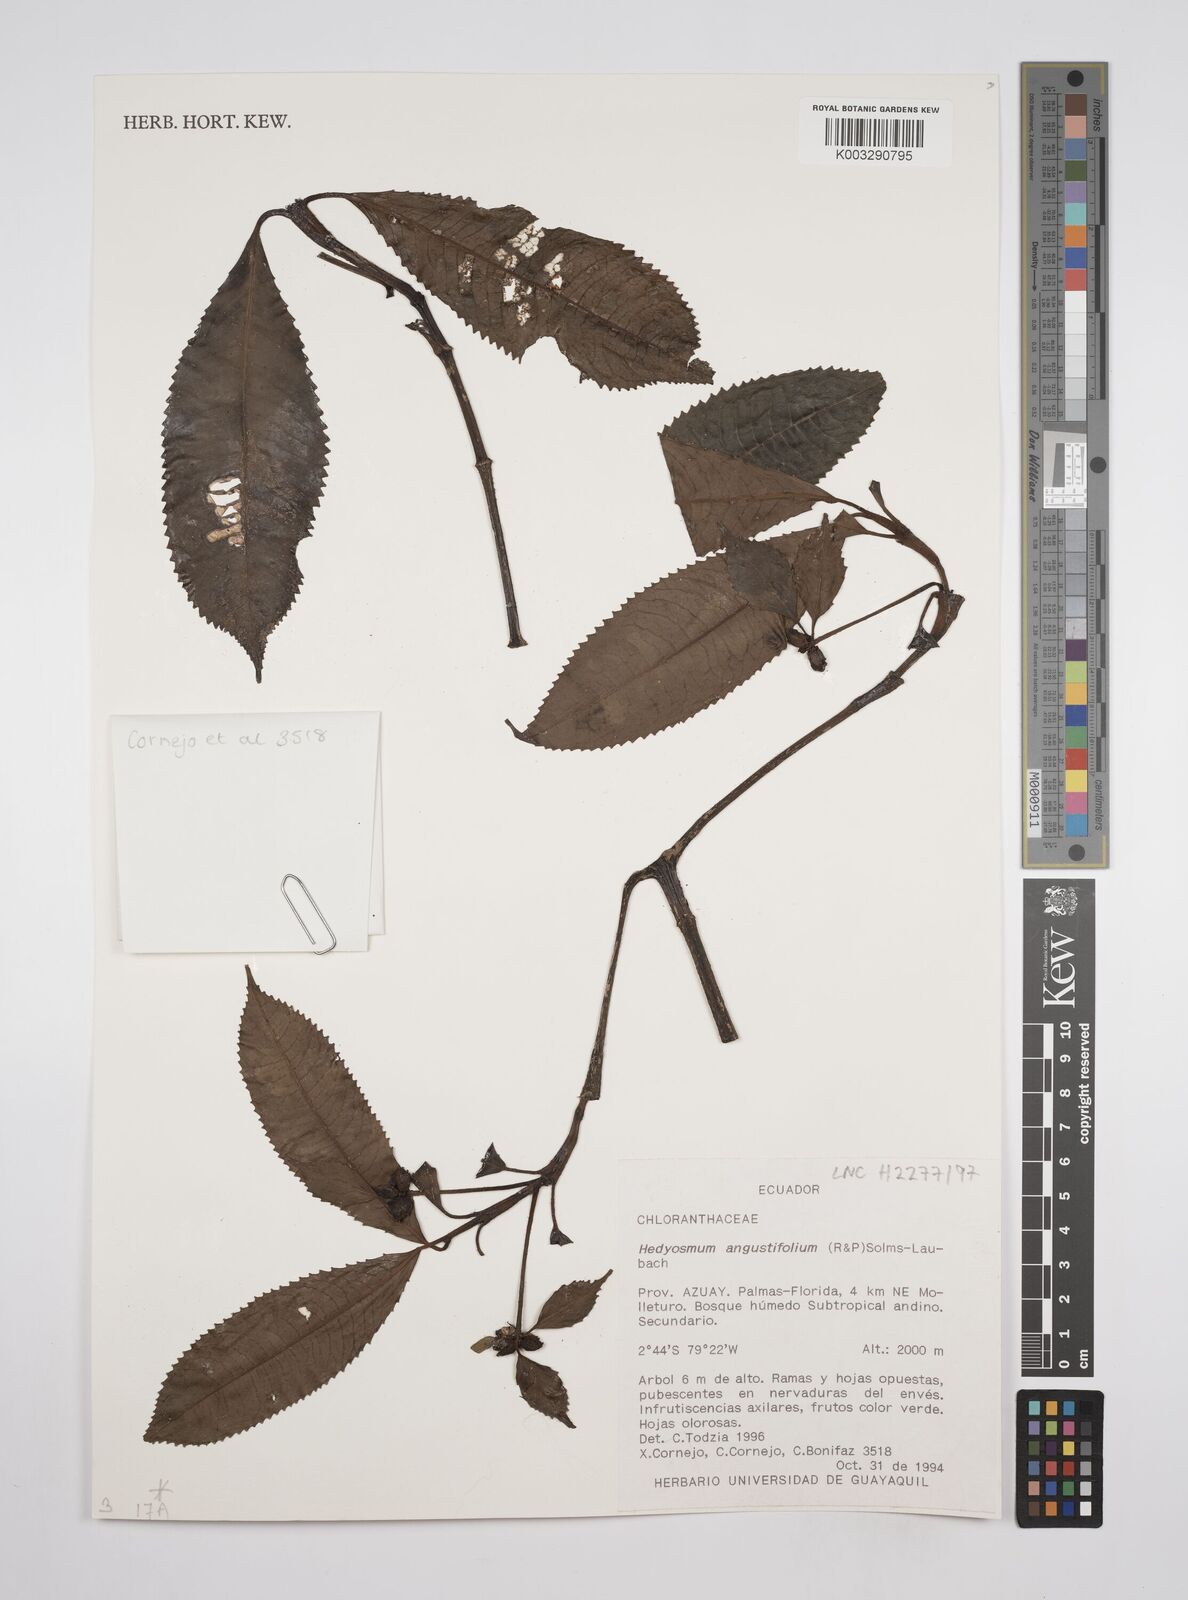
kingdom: Plantae
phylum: Tracheophyta
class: Magnoliopsida
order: Chloranthales
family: Chloranthaceae
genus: Hedyosmum
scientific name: Hedyosmum angustifolium
